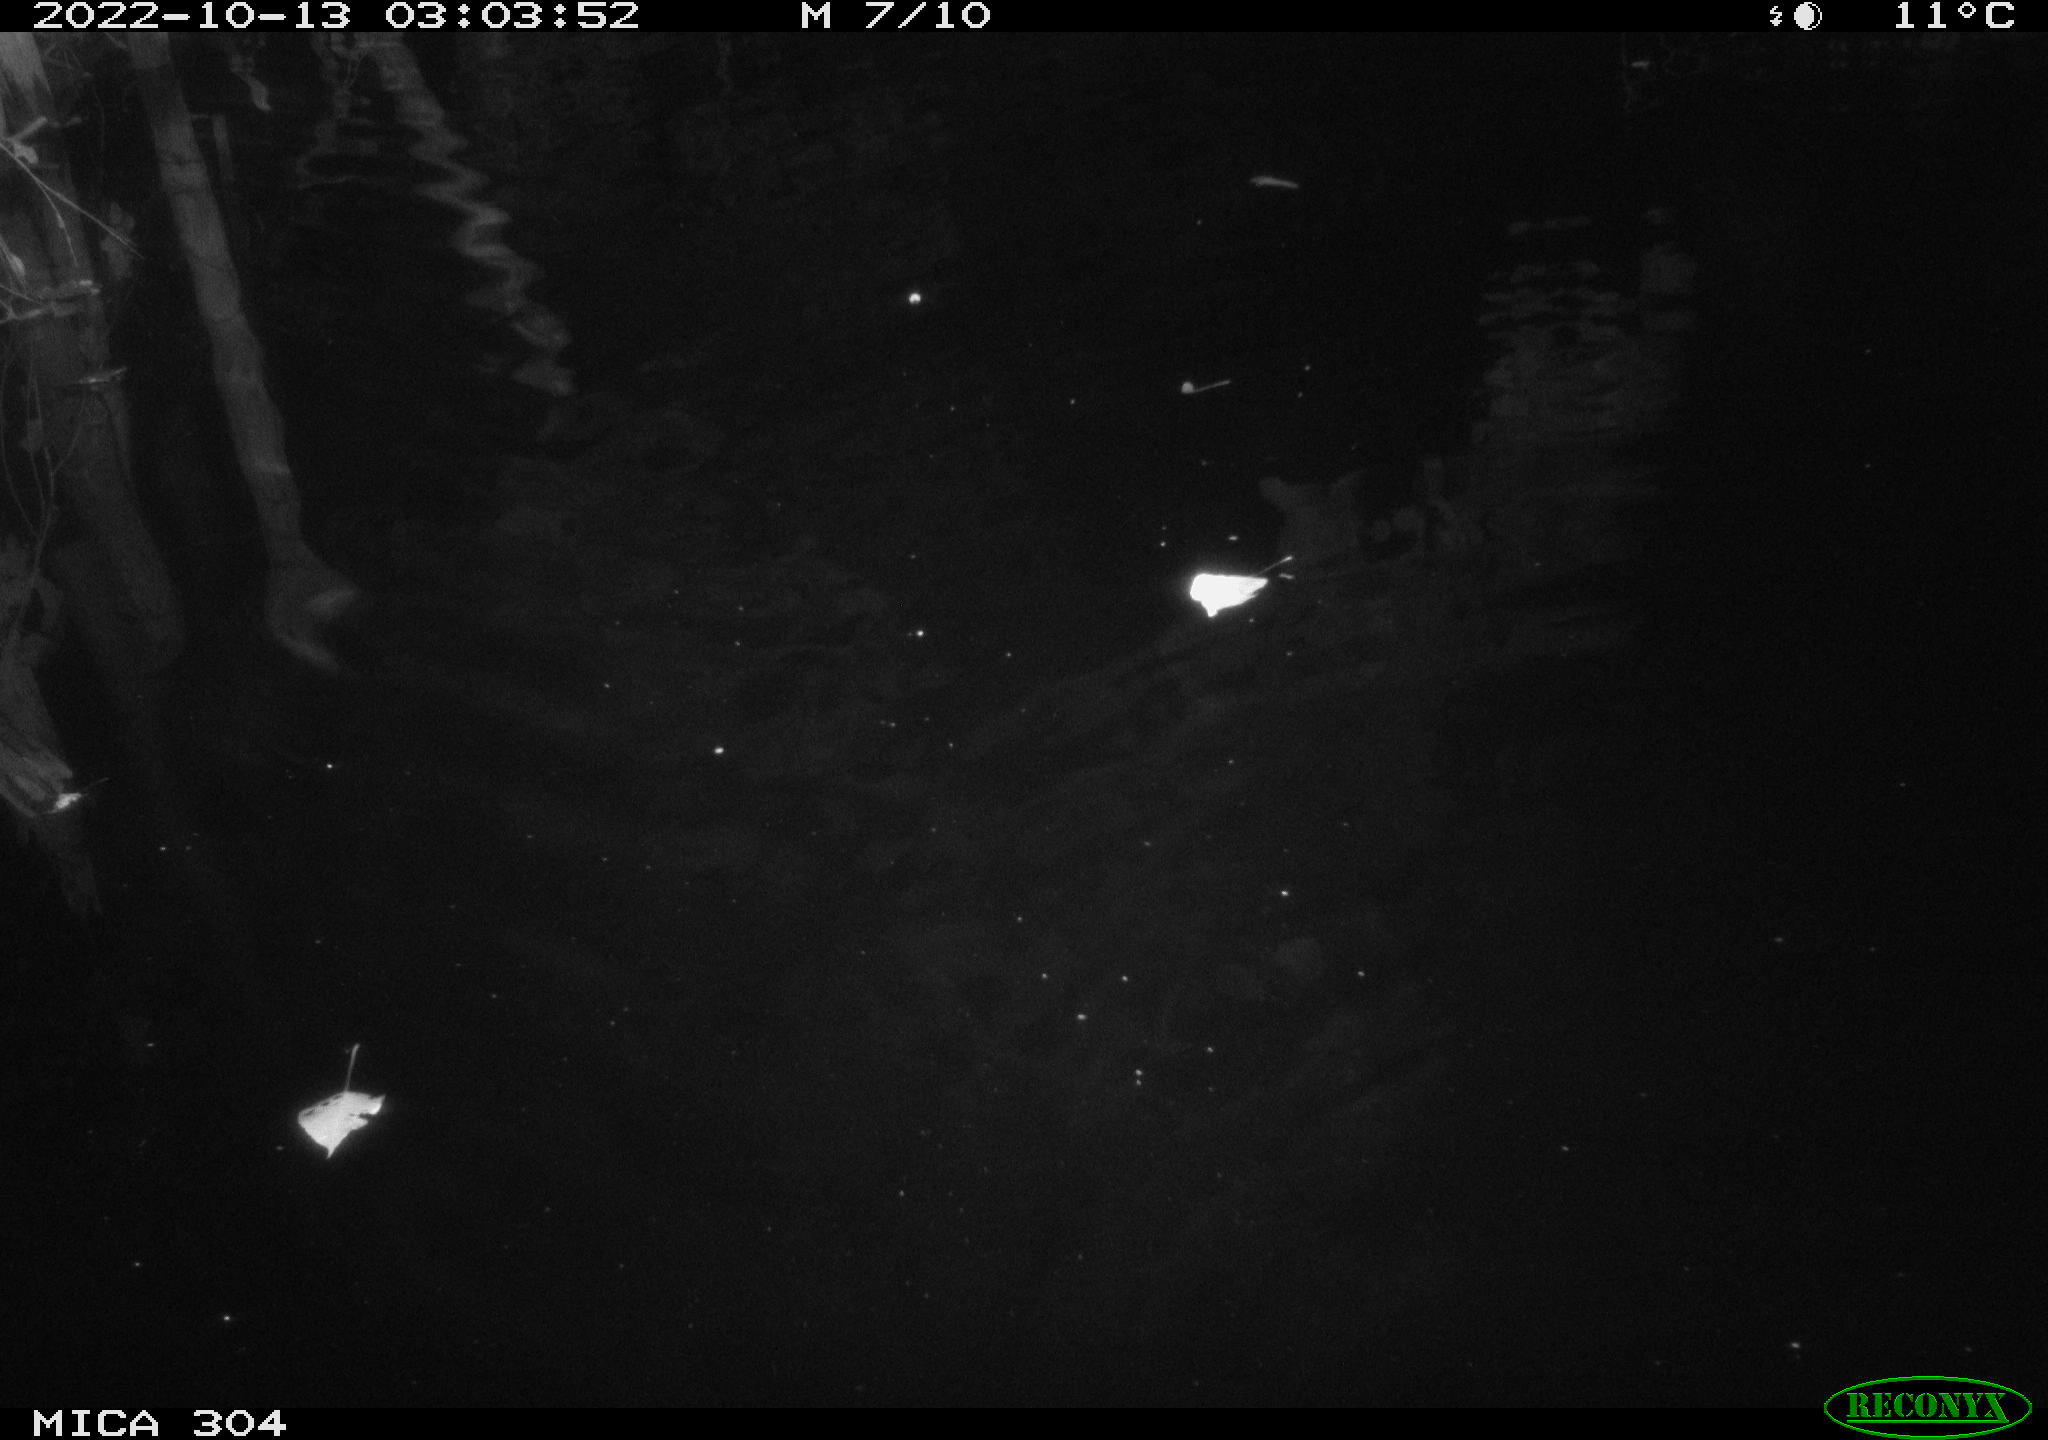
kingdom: Animalia
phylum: Chordata
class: Mammalia
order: Rodentia
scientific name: Rodentia
